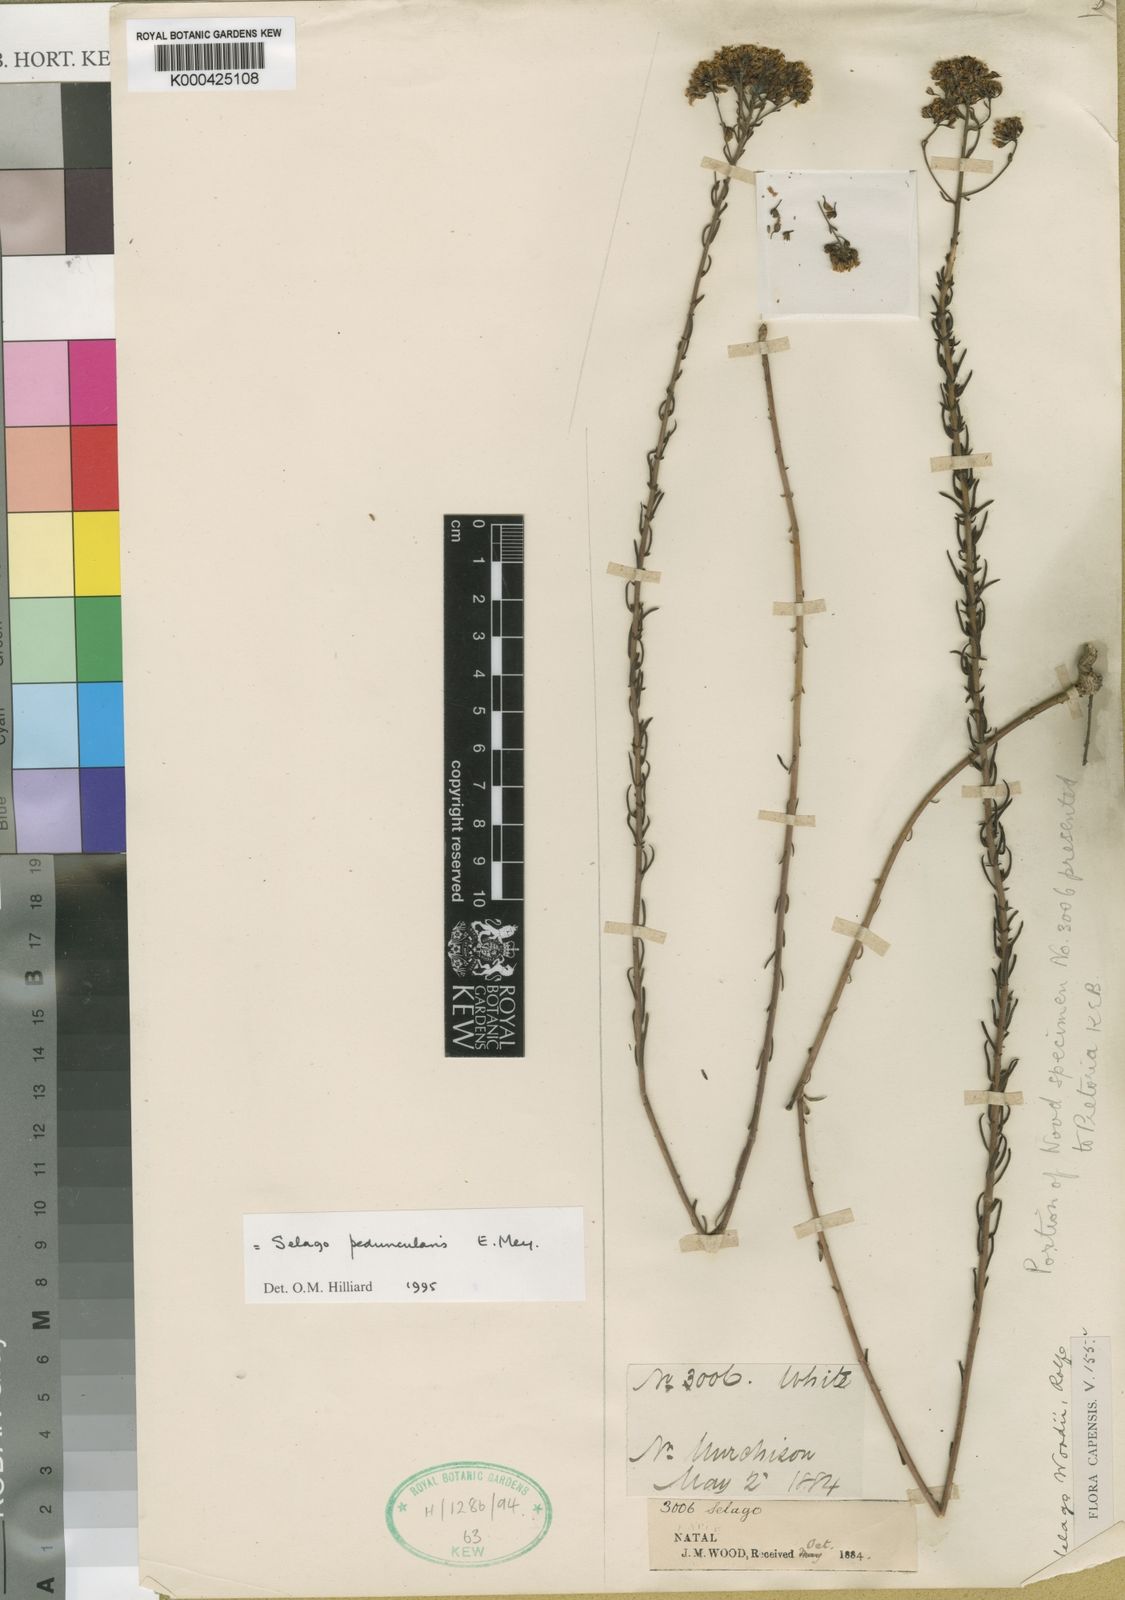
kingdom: Plantae
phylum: Tracheophyta
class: Magnoliopsida
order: Lamiales
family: Scrophulariaceae
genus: Selago
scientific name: Selago peduncularis
